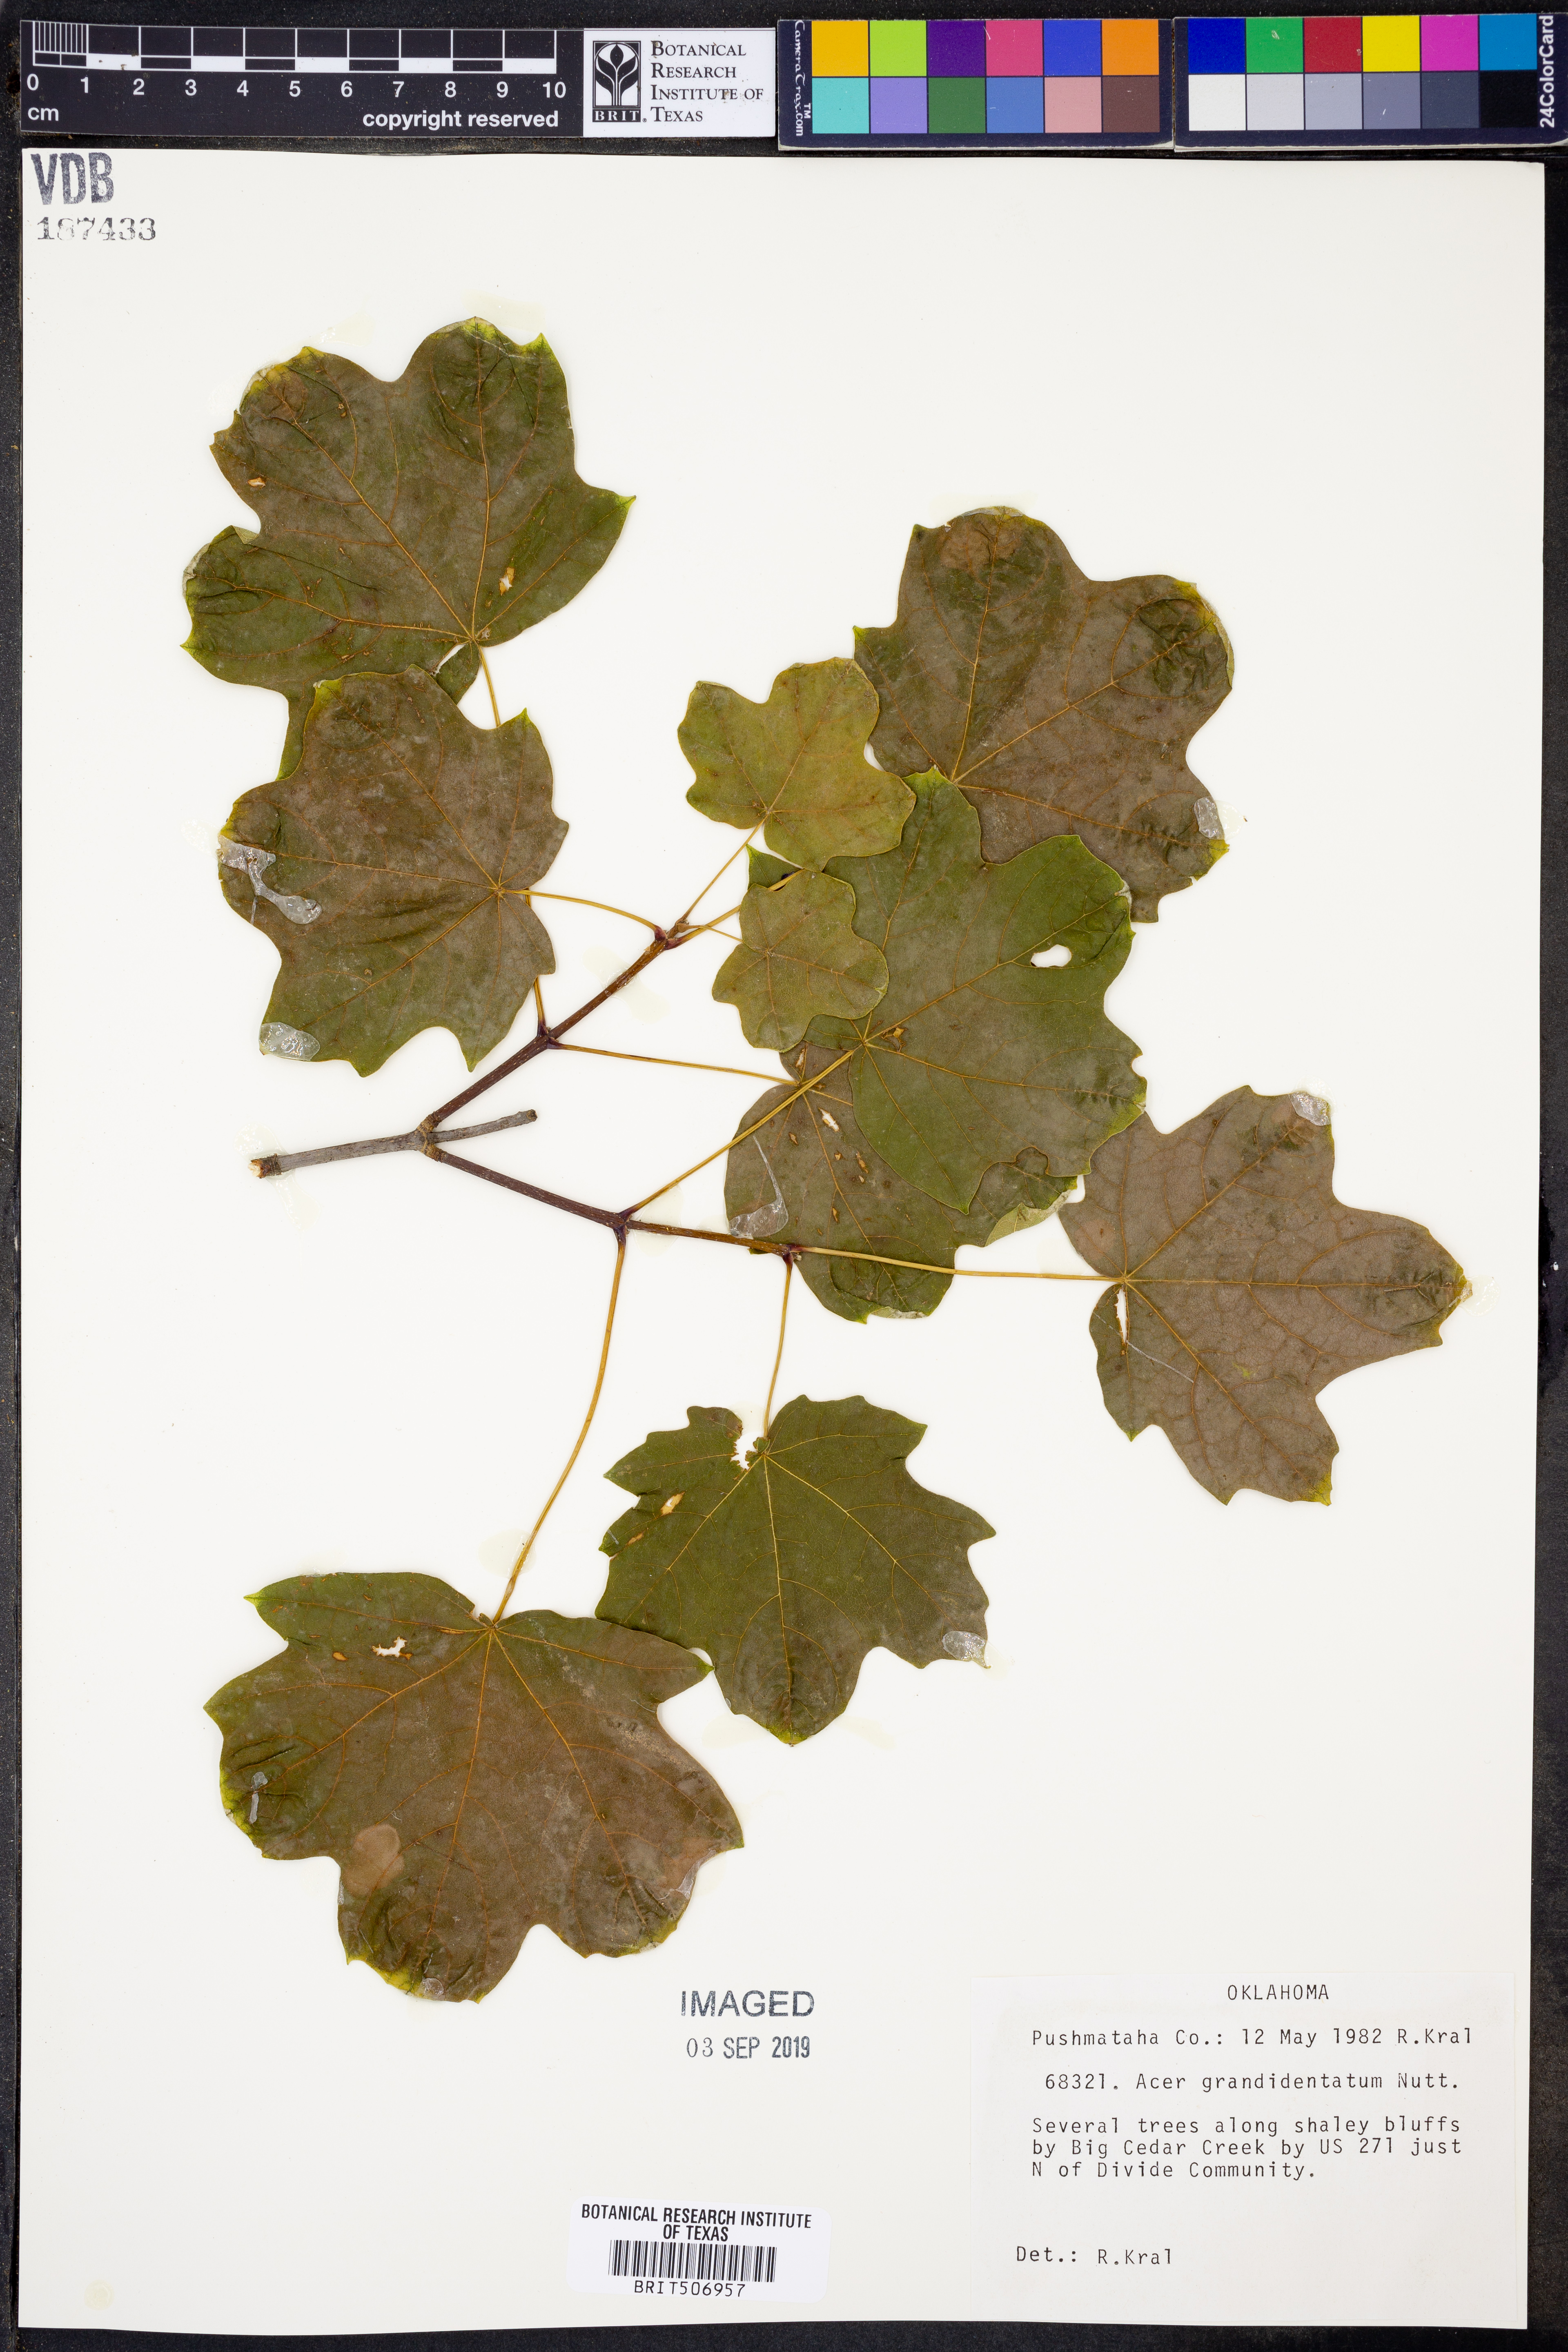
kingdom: Plantae
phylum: Tracheophyta
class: Magnoliopsida
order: Sapindales
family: Sapindaceae
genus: Acer
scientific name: Acer grandidentatum
